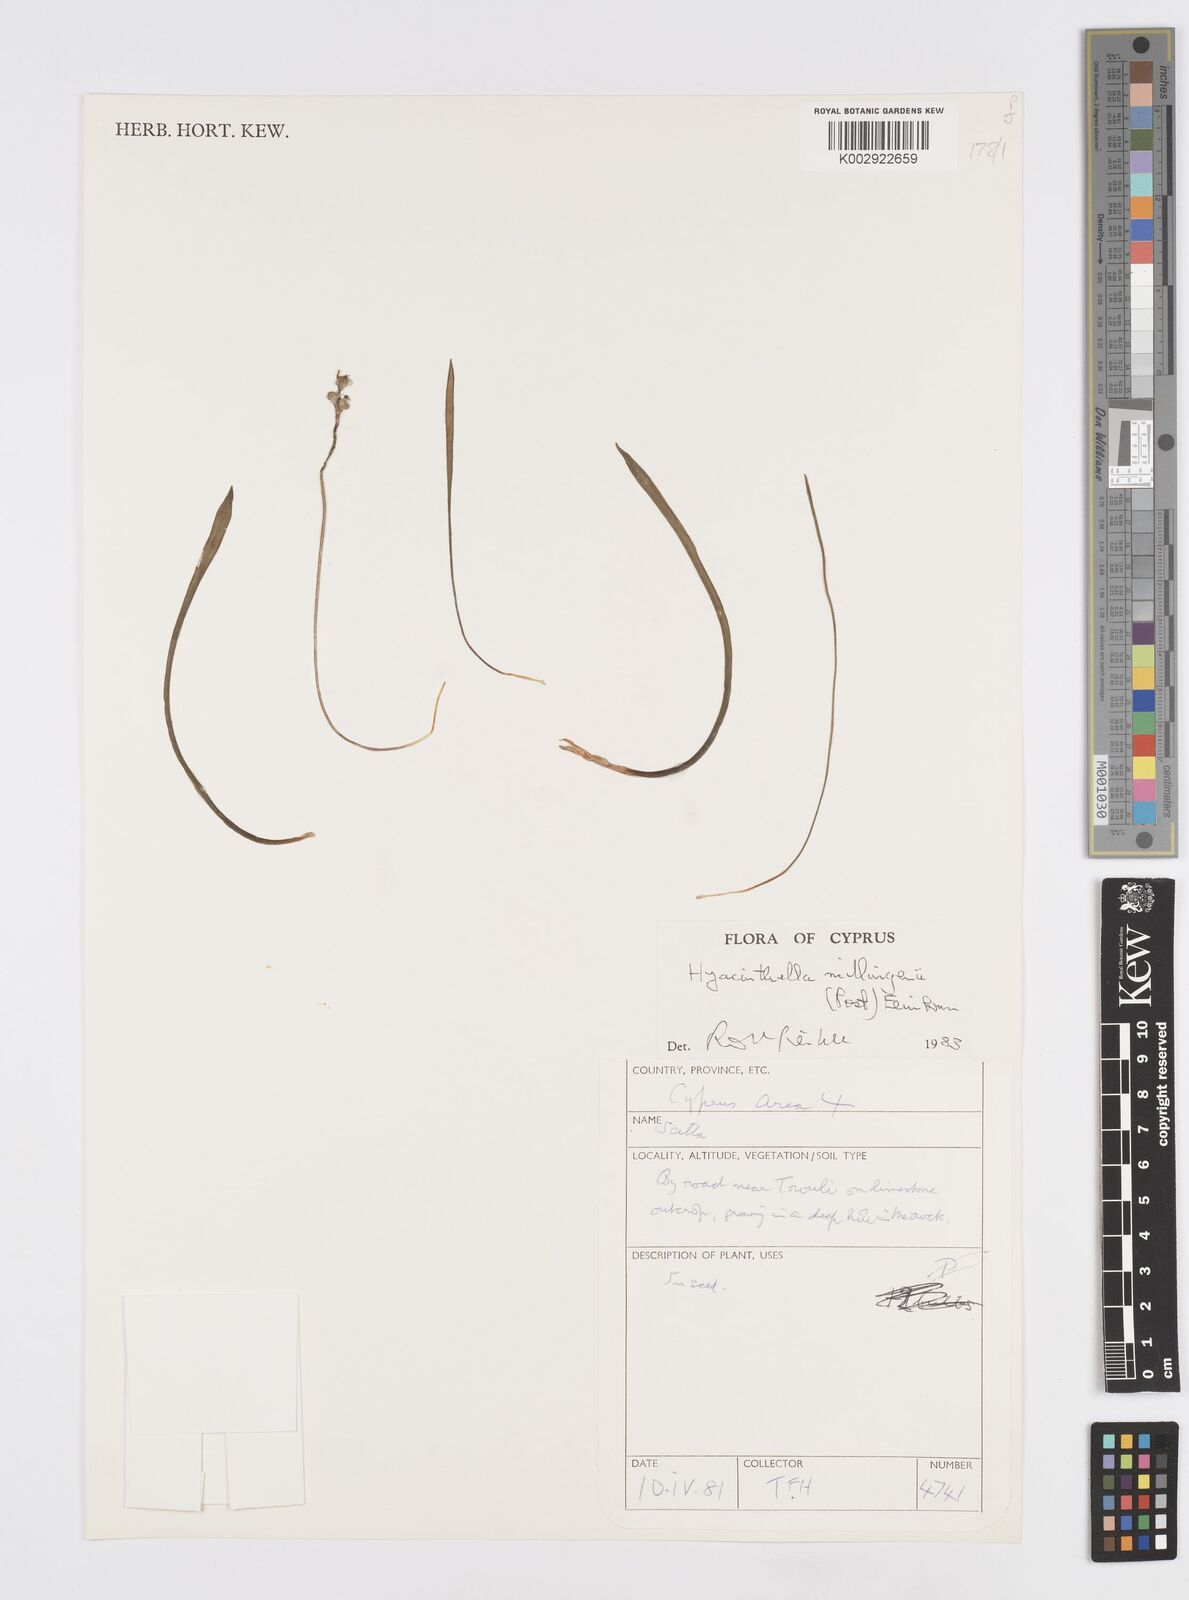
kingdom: Plantae
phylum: Tracheophyta
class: Liliopsida
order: Asparagales
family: Asparagaceae
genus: Hyacinthella
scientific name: Hyacinthella millingenii
